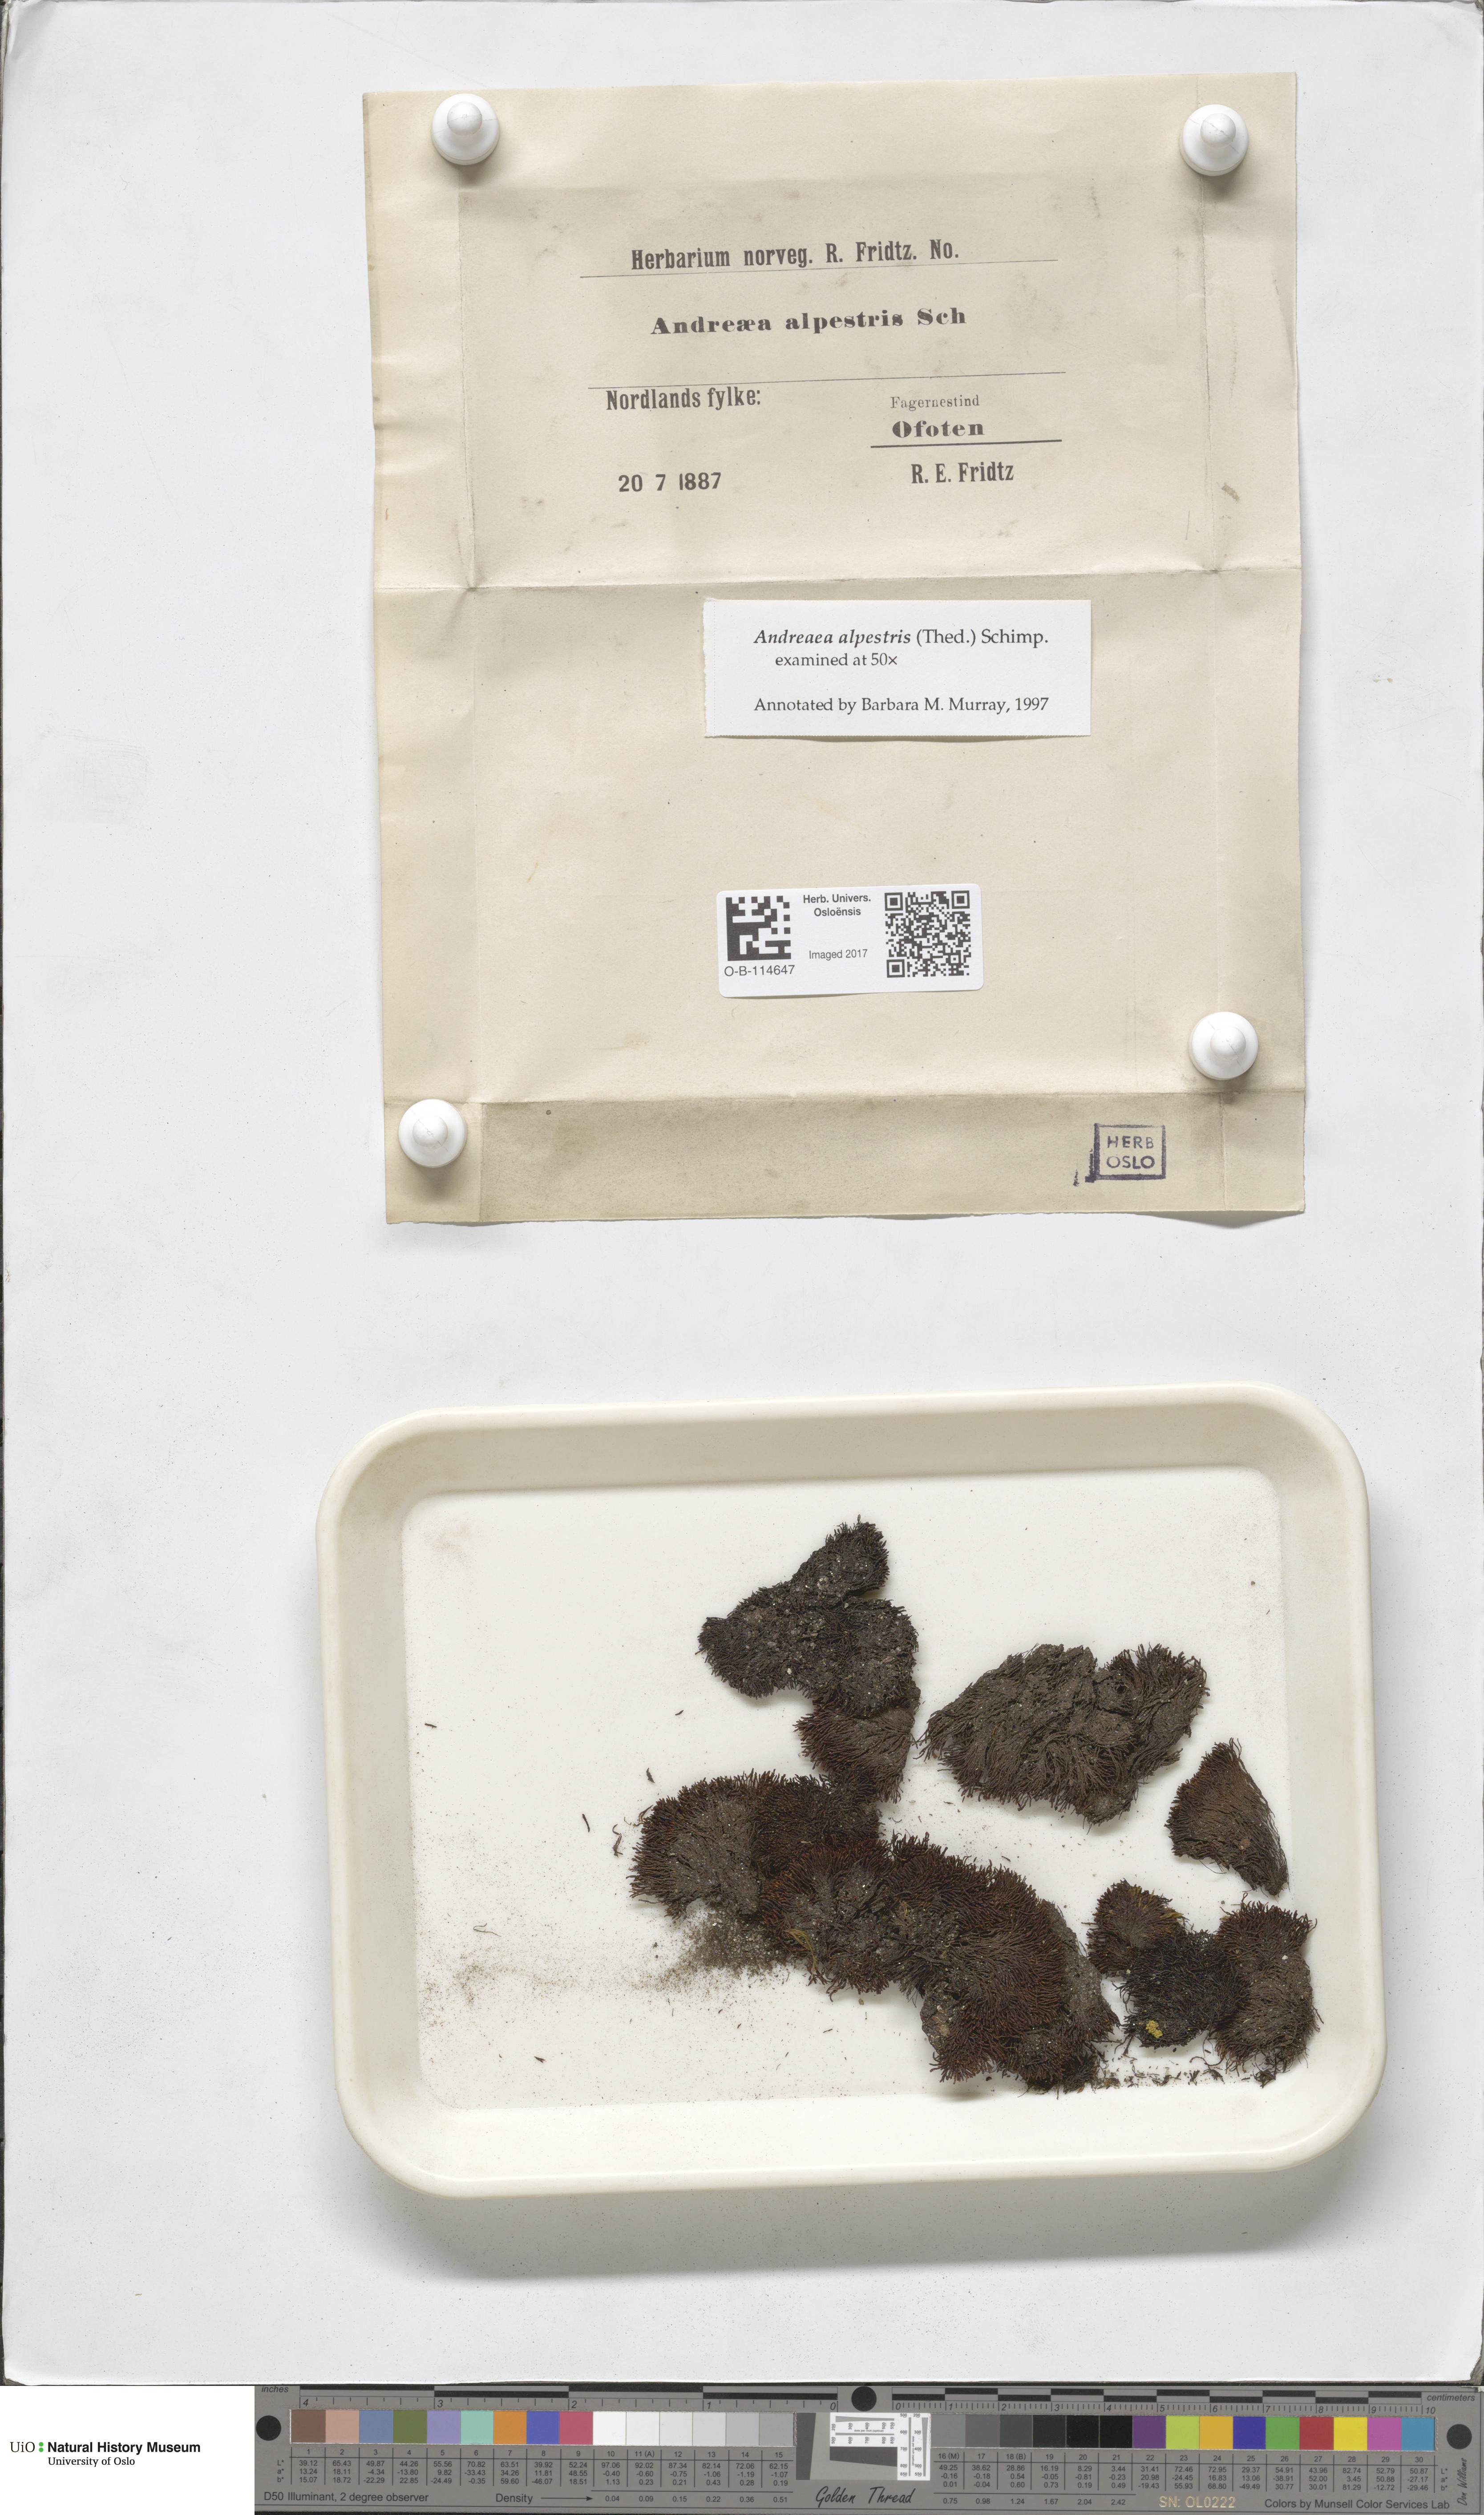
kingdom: Plantae
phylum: Bryophyta
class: Andreaeopsida
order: Andreaeales
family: Andreaeaceae
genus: Andreaea
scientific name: Andreaea alpestris
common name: Slender rock-moss
